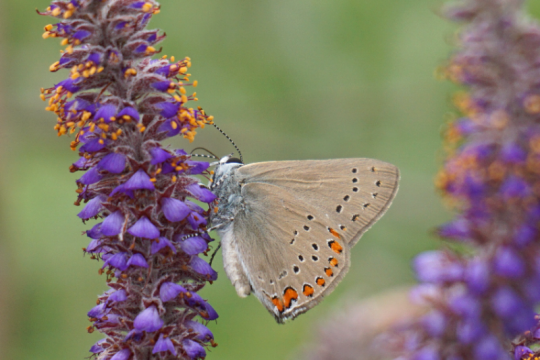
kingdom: Animalia
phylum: Arthropoda
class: Insecta
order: Lepidoptera
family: Lycaenidae
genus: Harkenclenus
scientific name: Harkenclenus titus
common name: Coral Hairstreak
